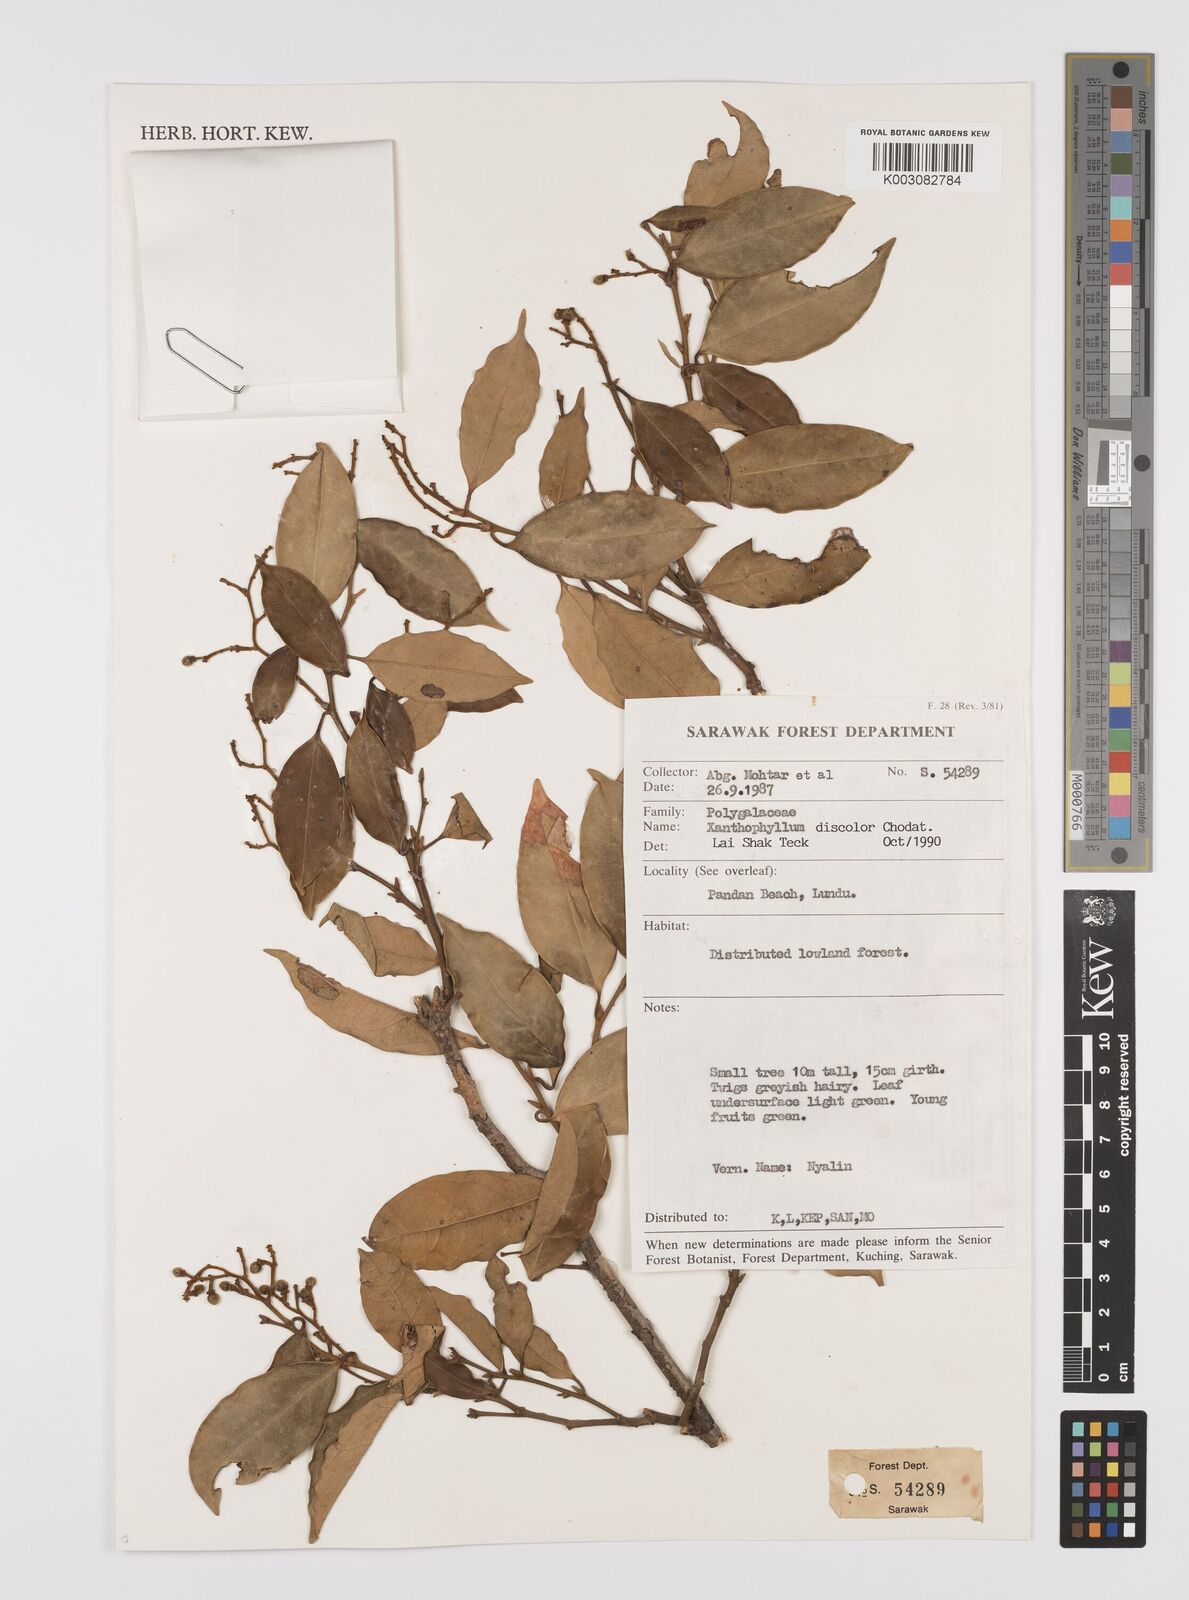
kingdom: Plantae
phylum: Tracheophyta
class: Magnoliopsida
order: Fabales
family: Polygalaceae
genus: Xanthophyllum
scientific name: Xanthophyllum discolor
